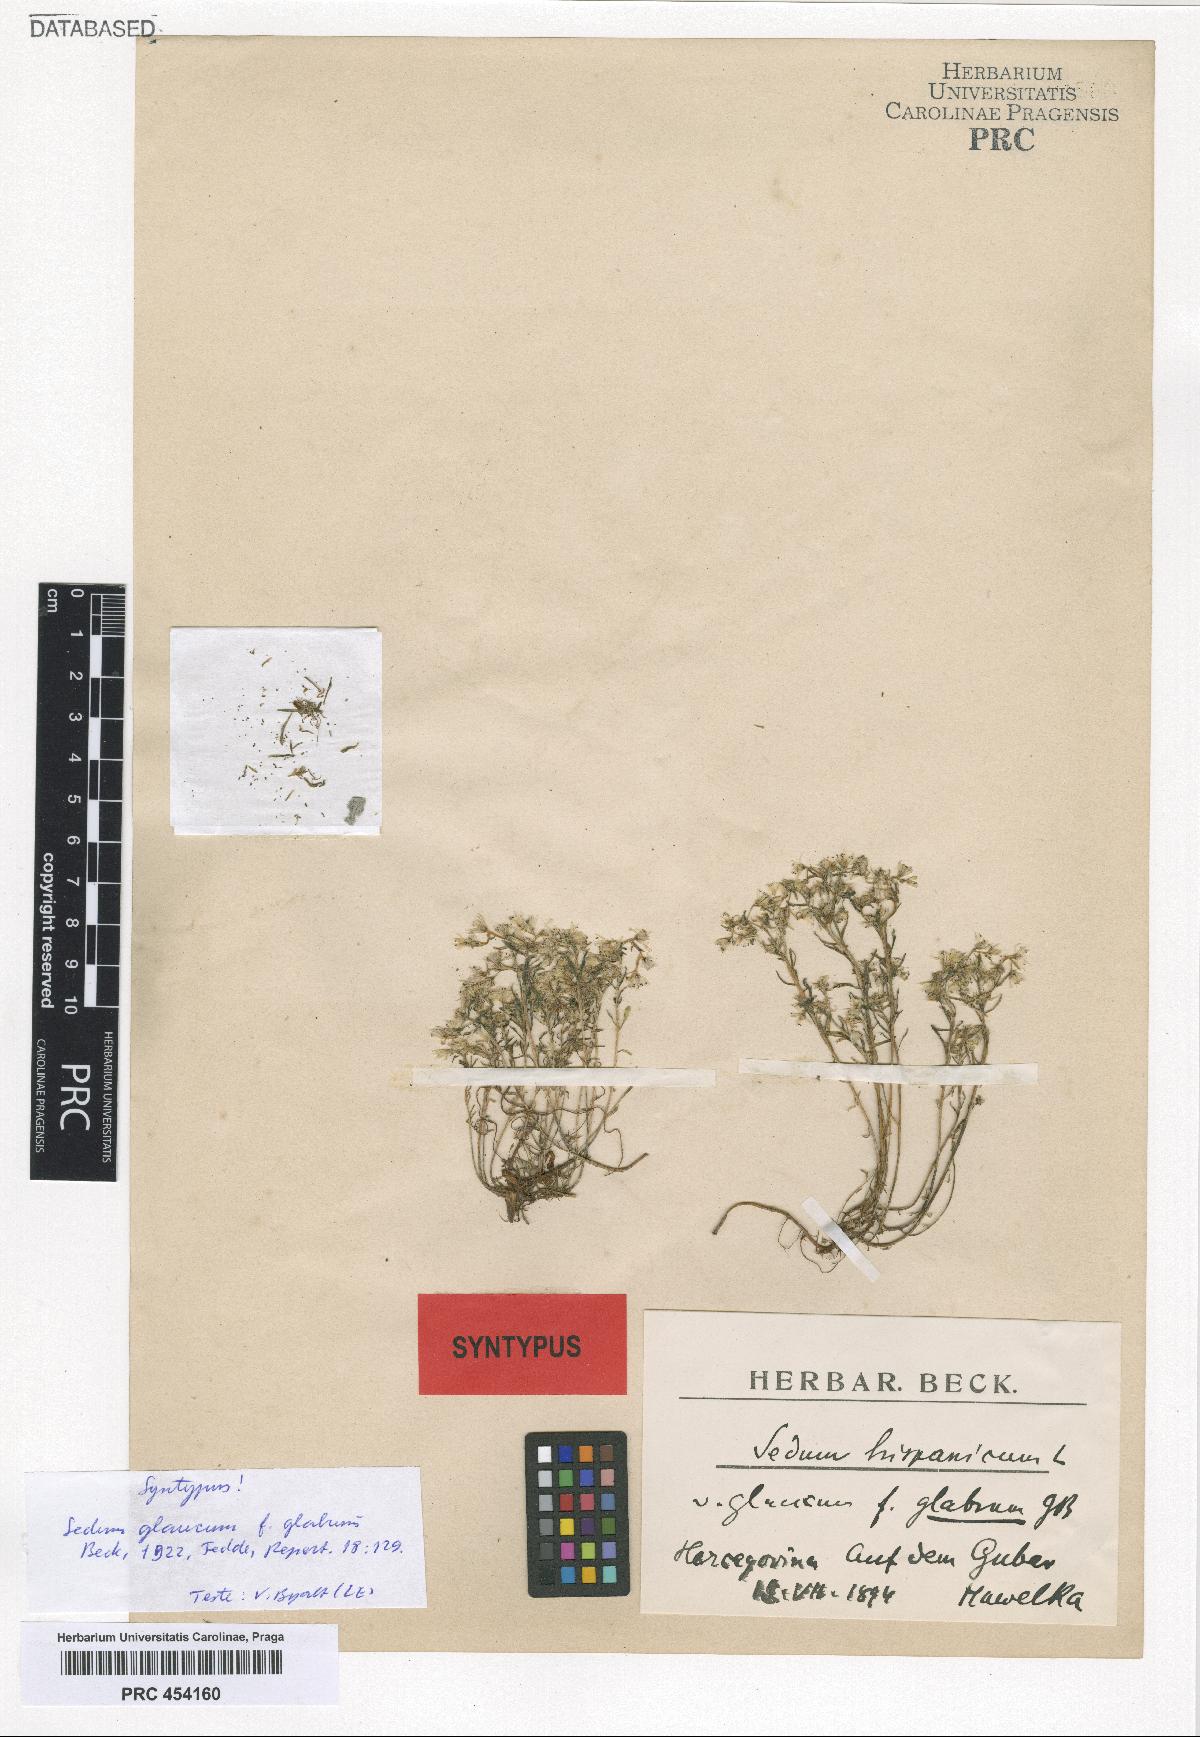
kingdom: Plantae
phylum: Tracheophyta
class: Magnoliopsida
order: Saxifragales
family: Crassulaceae
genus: Sedum
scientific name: Sedum glaucum
